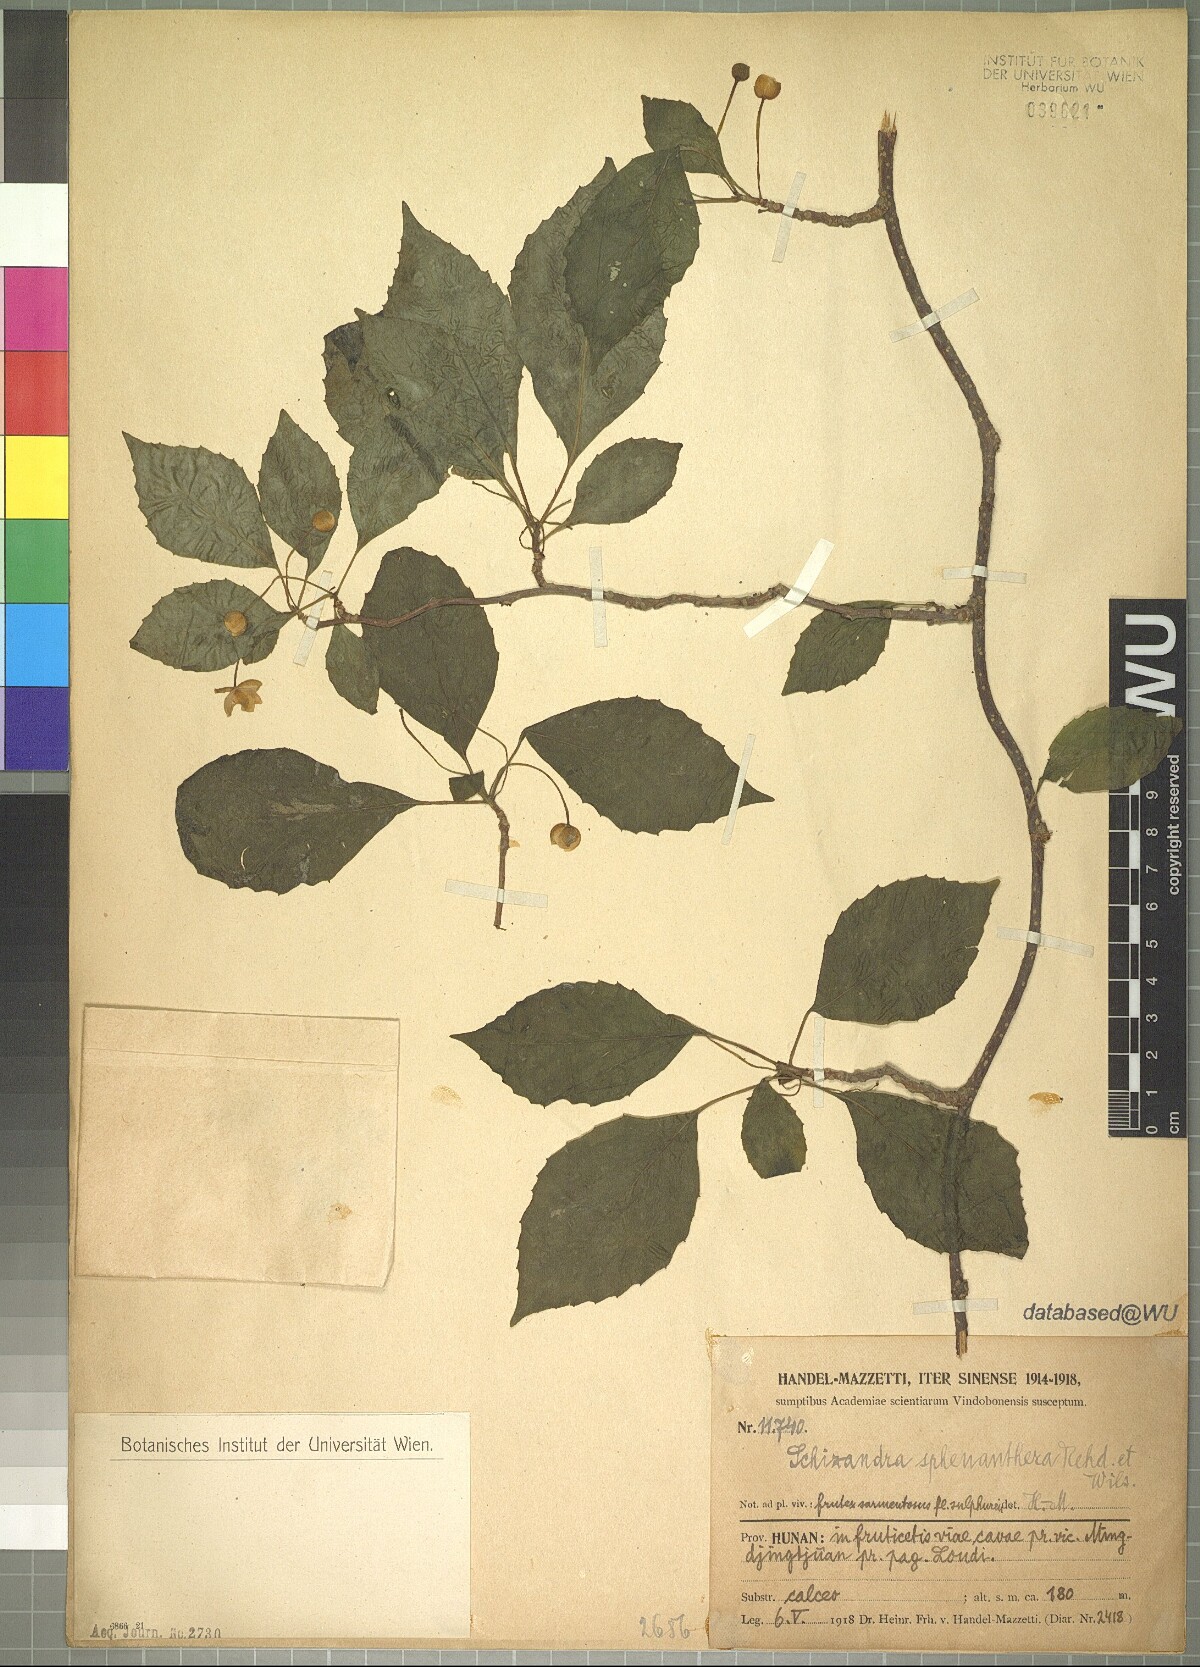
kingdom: Plantae
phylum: Tracheophyta
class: Magnoliopsida
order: Austrobaileyales
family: Schisandraceae
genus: Schisandra
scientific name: Schisandra sphenanthera
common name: Lemonwood
